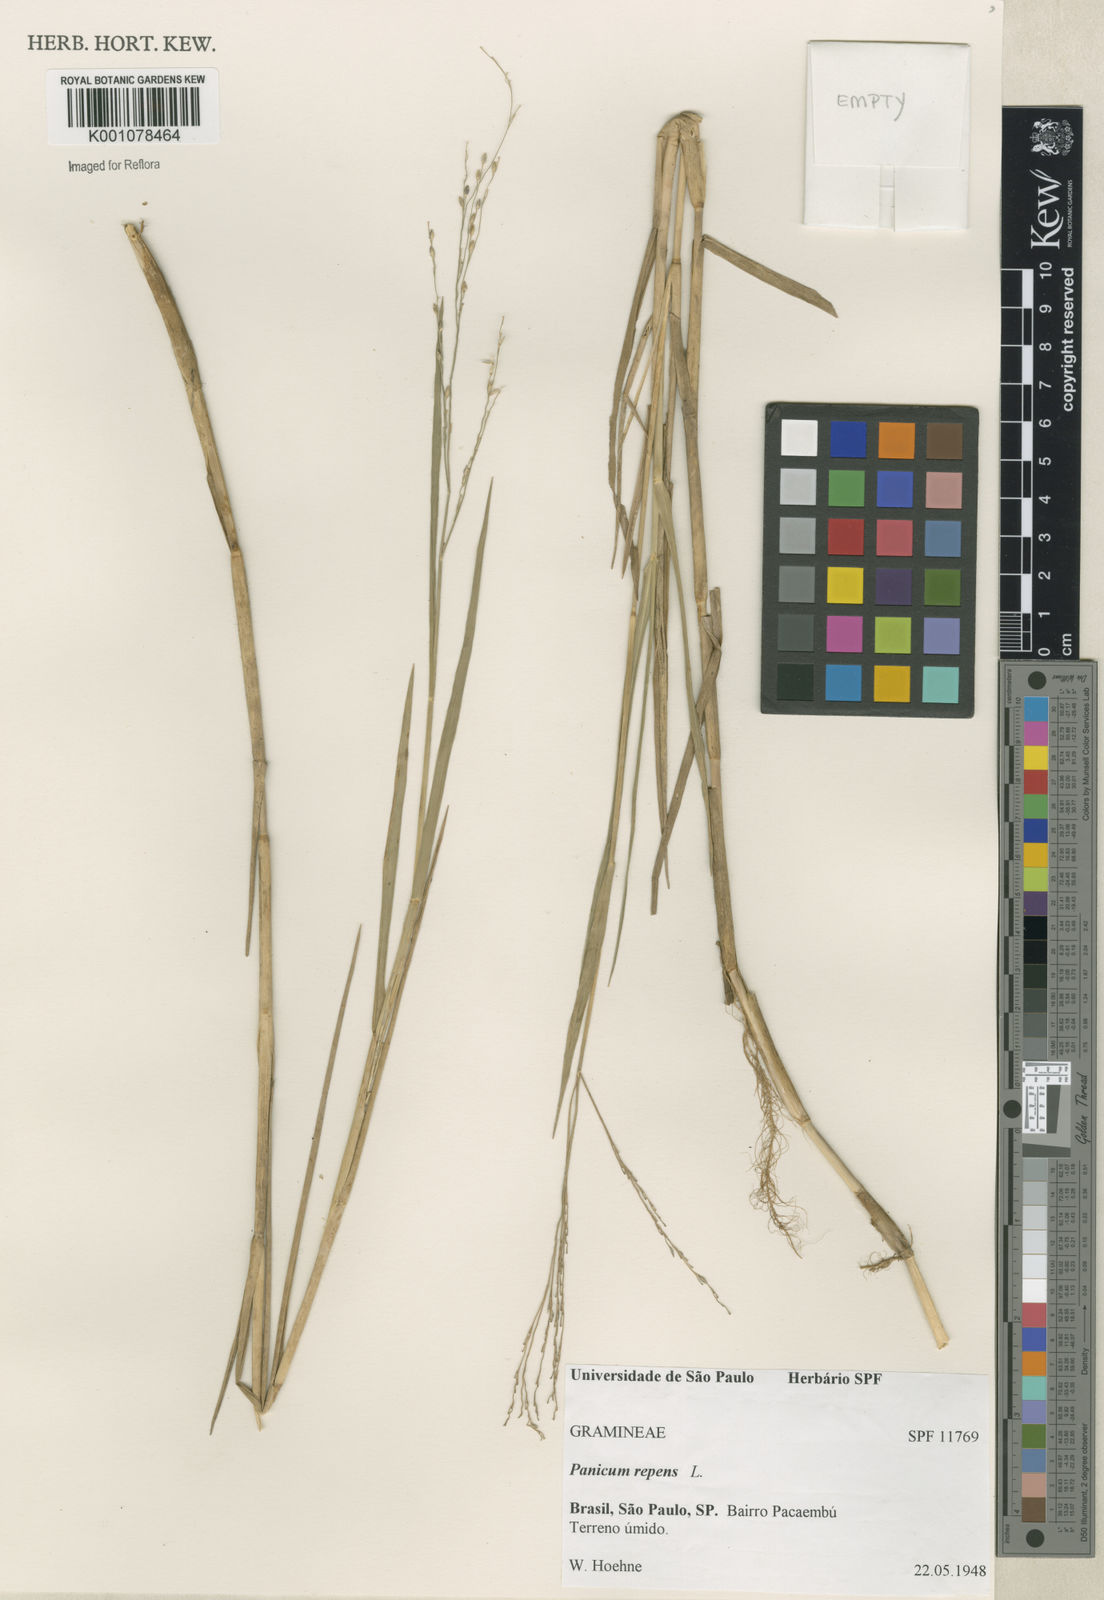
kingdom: Plantae
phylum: Tracheophyta
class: Liliopsida
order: Poales
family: Poaceae
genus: Panicum
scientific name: Panicum repens
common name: Torpedo grass
